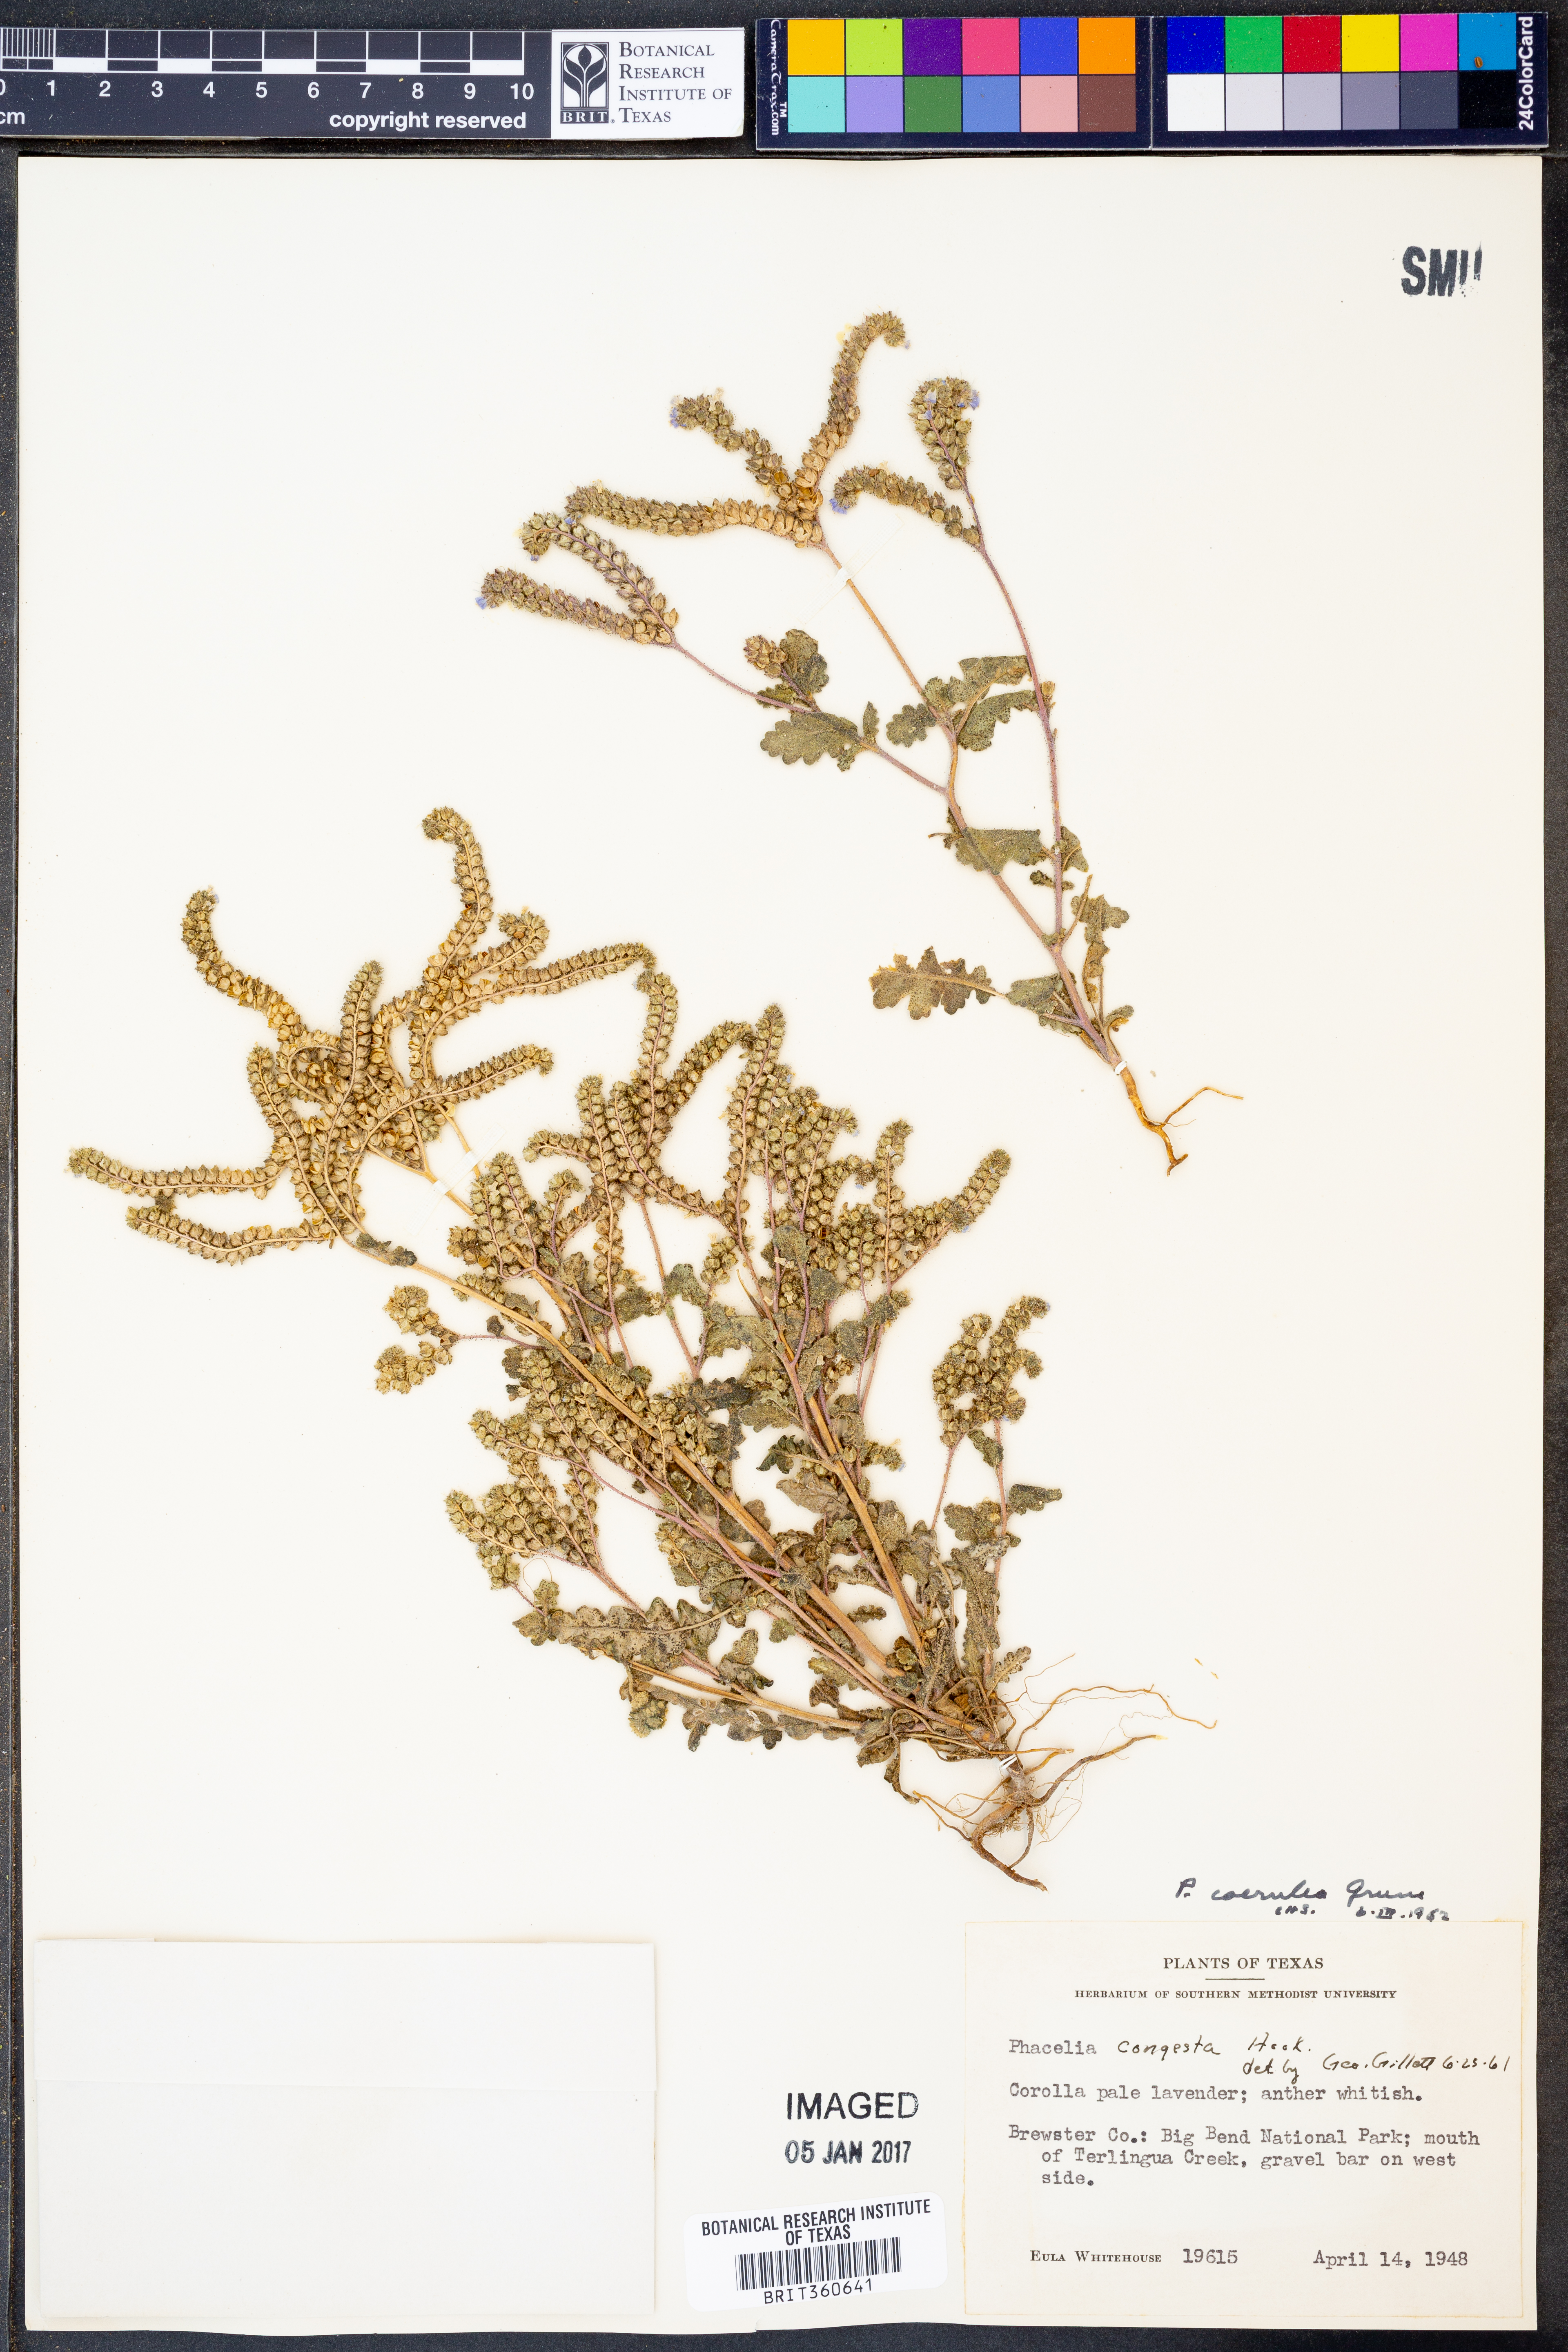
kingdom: Plantae
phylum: Tracheophyta
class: Magnoliopsida
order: Boraginales
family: Hydrophyllaceae
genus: Phacelia
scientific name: Phacelia coerulea
